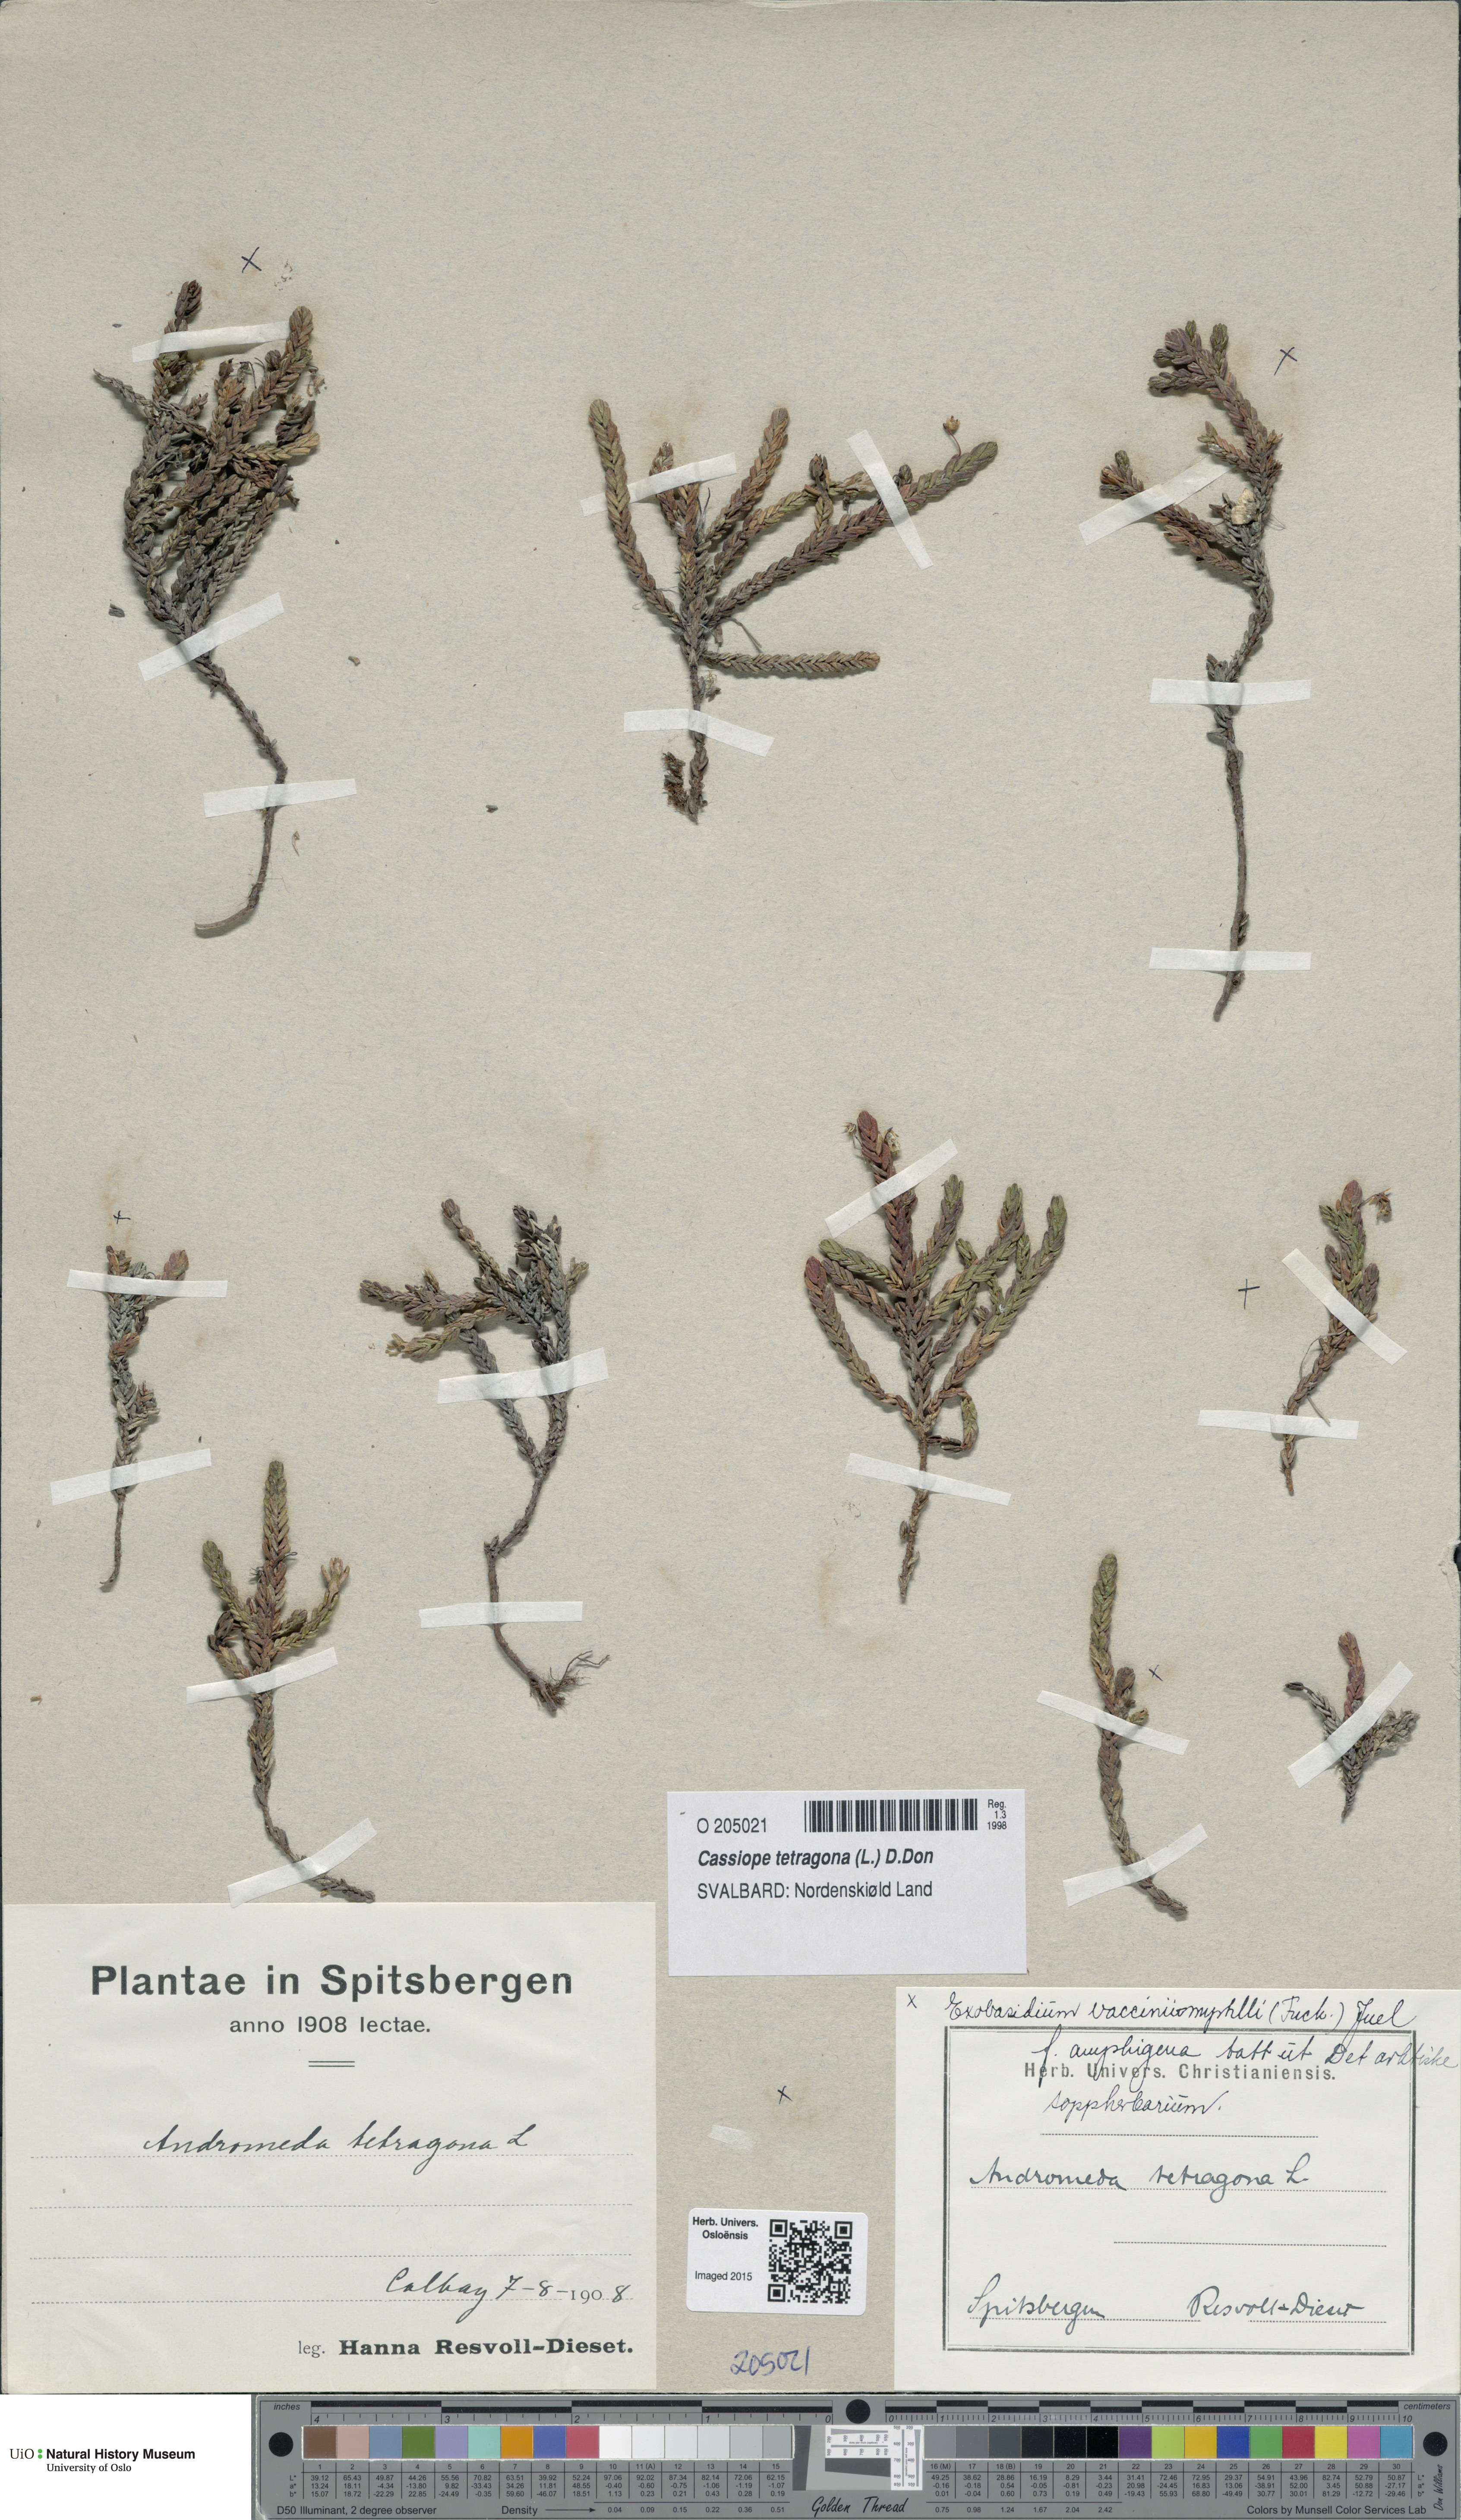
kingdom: Plantae
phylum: Tracheophyta
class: Magnoliopsida
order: Ericales
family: Ericaceae
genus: Cassiope
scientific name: Cassiope tetragona
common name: Arctic bell heather
